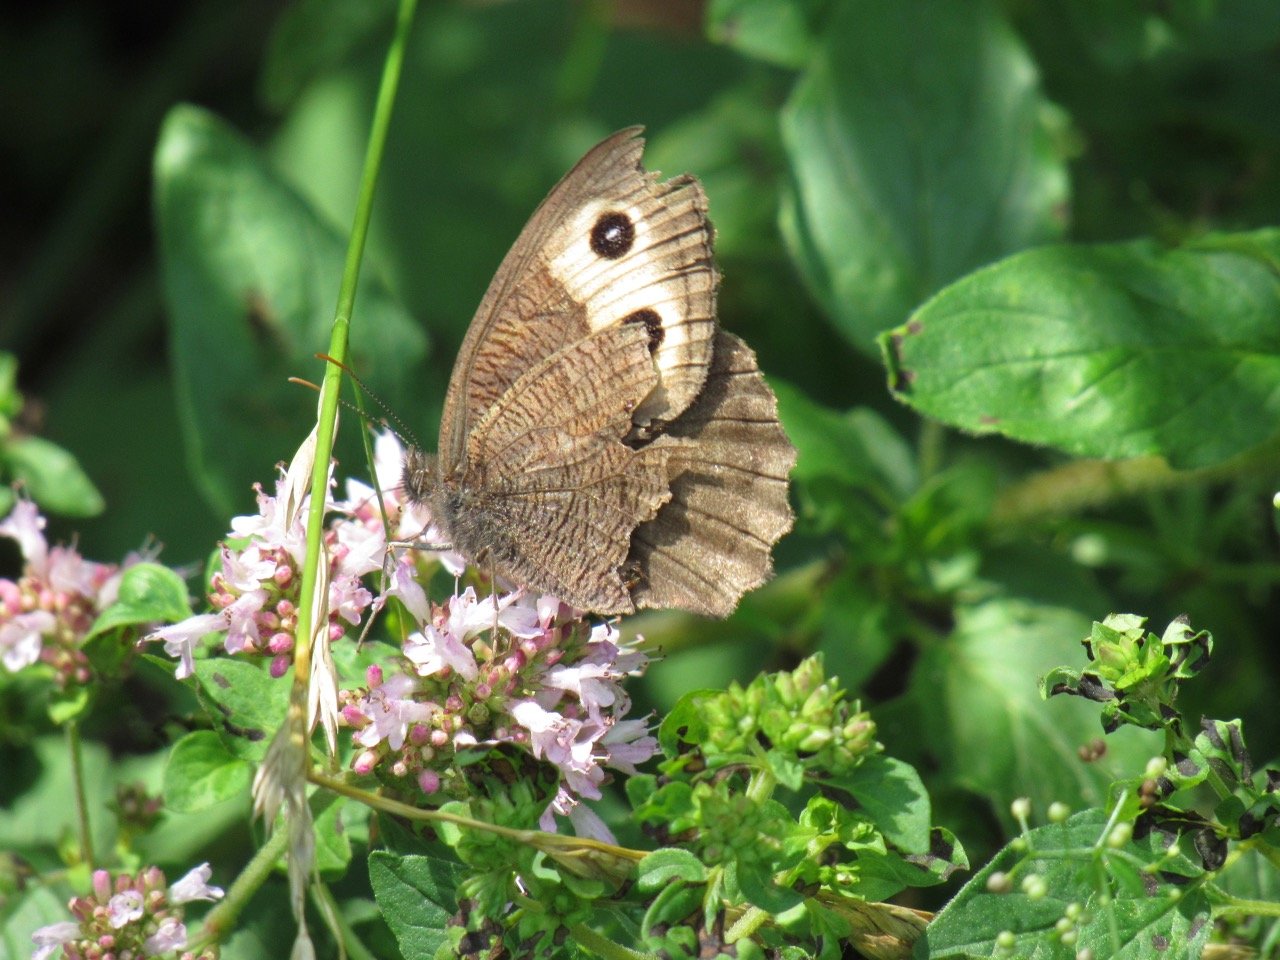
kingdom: Animalia
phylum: Arthropoda
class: Insecta
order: Lepidoptera
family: Nymphalidae
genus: Cercyonis
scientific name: Cercyonis pegala
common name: Common Wood-Nymph
